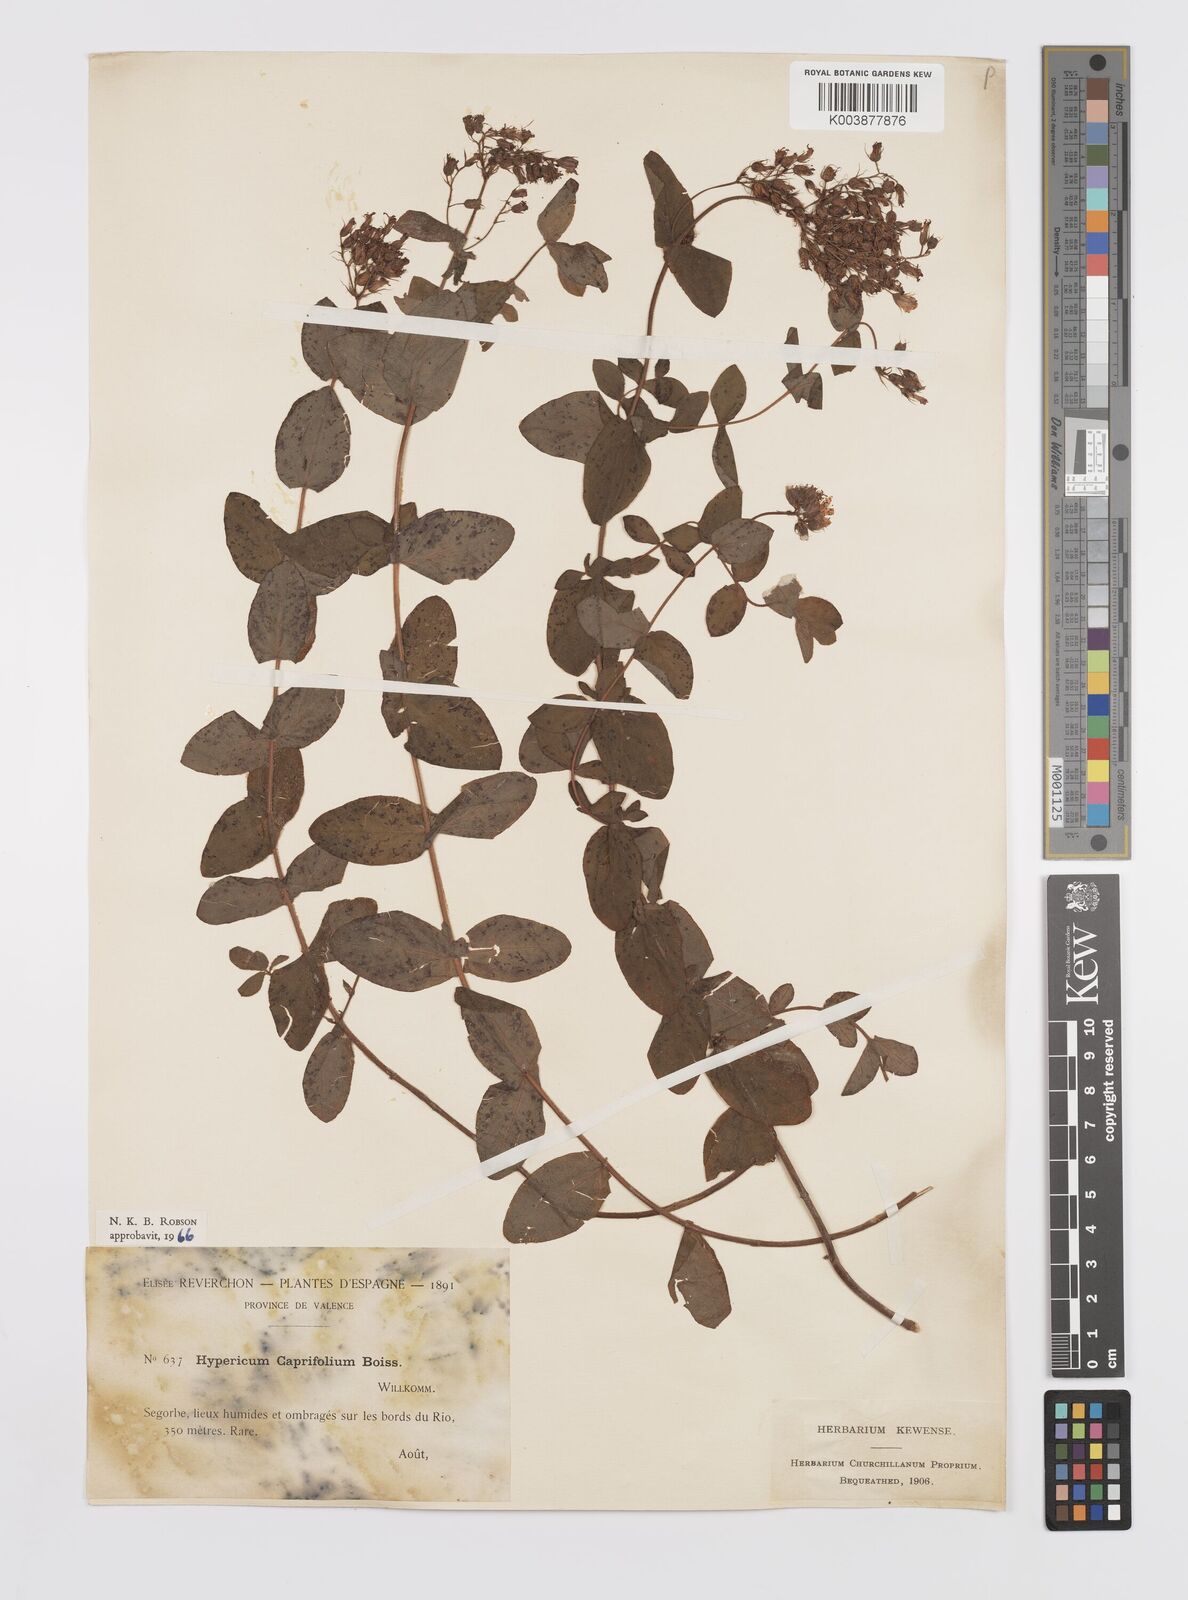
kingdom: Plantae
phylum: Tracheophyta
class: Magnoliopsida
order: Malpighiales
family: Hypericaceae
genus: Hypericum
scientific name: Hypericum caprifolium
